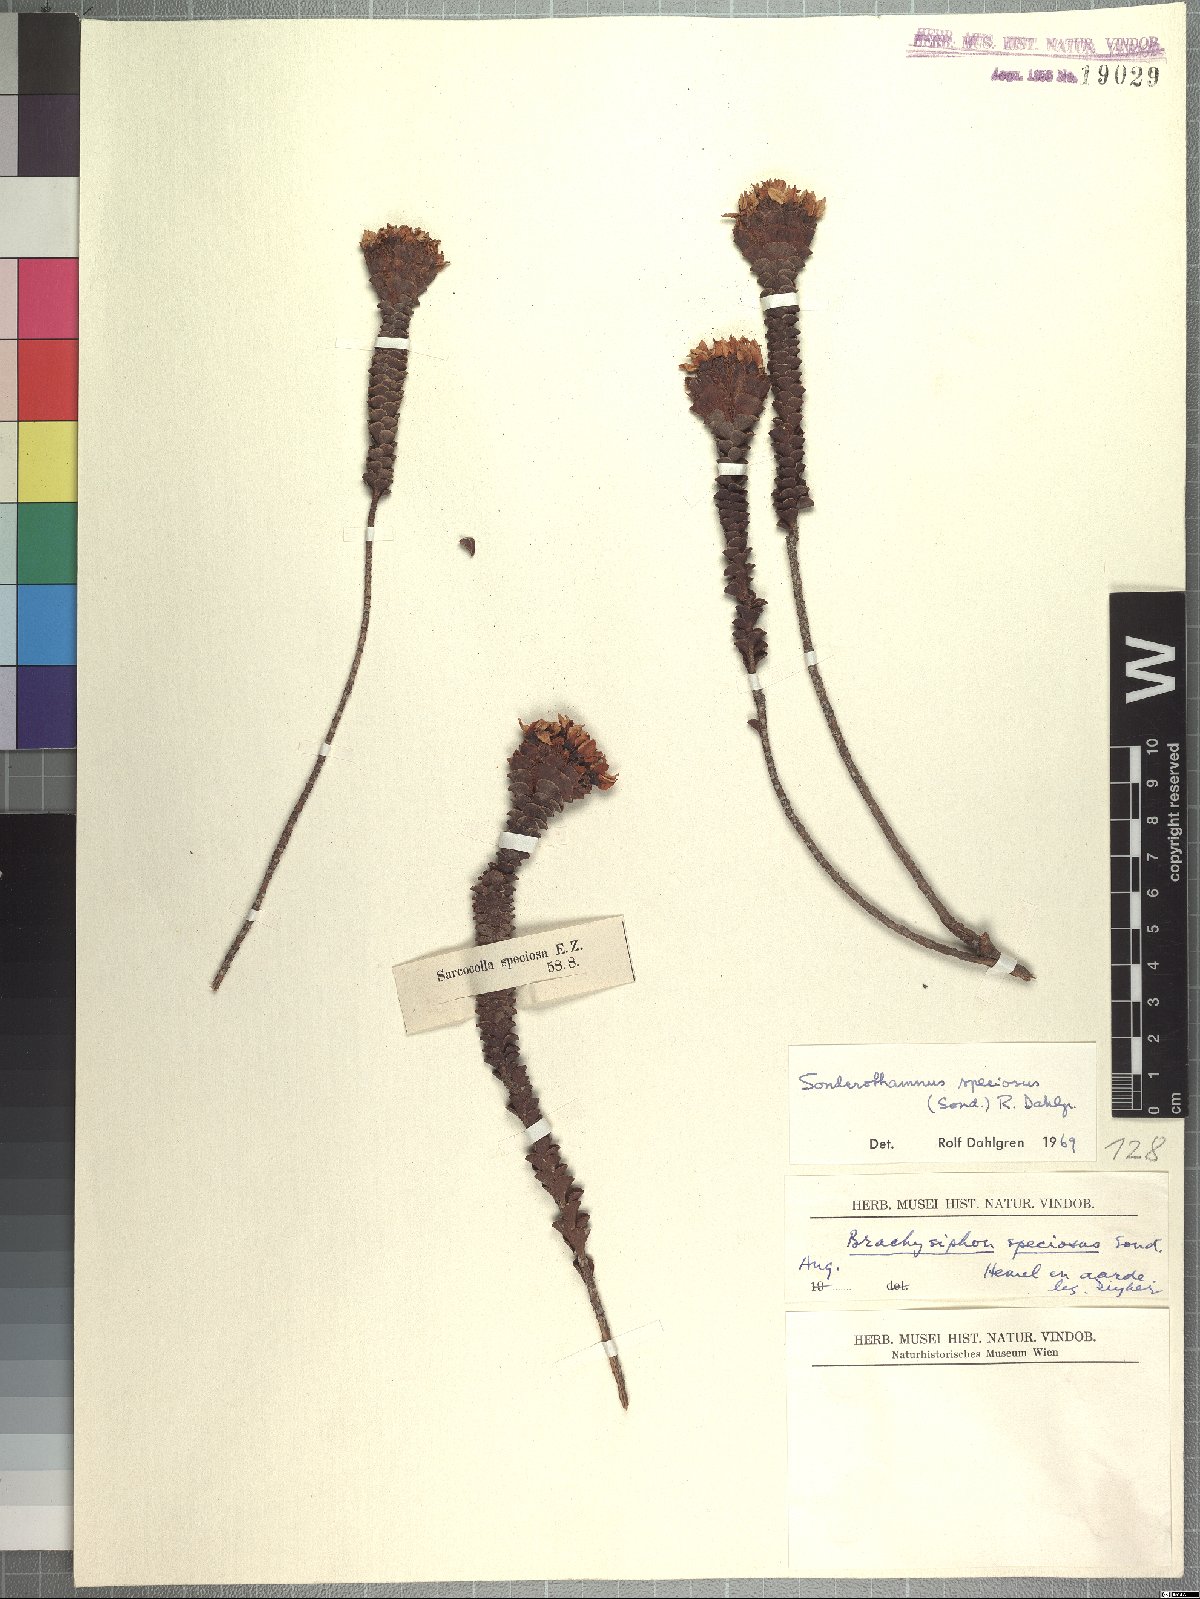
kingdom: Plantae
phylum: Tracheophyta
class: Magnoliopsida
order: Myrtales
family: Penaeaceae
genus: Sonderothamnus
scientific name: Sonderothamnus speciosus
